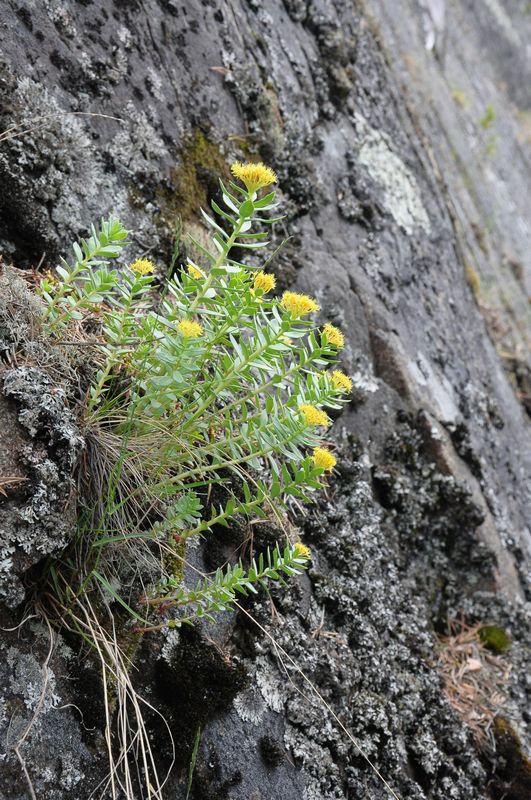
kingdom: Plantae
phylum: Tracheophyta
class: Magnoliopsida
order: Saxifragales
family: Crassulaceae
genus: Rhodiola
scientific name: Rhodiola rosea
